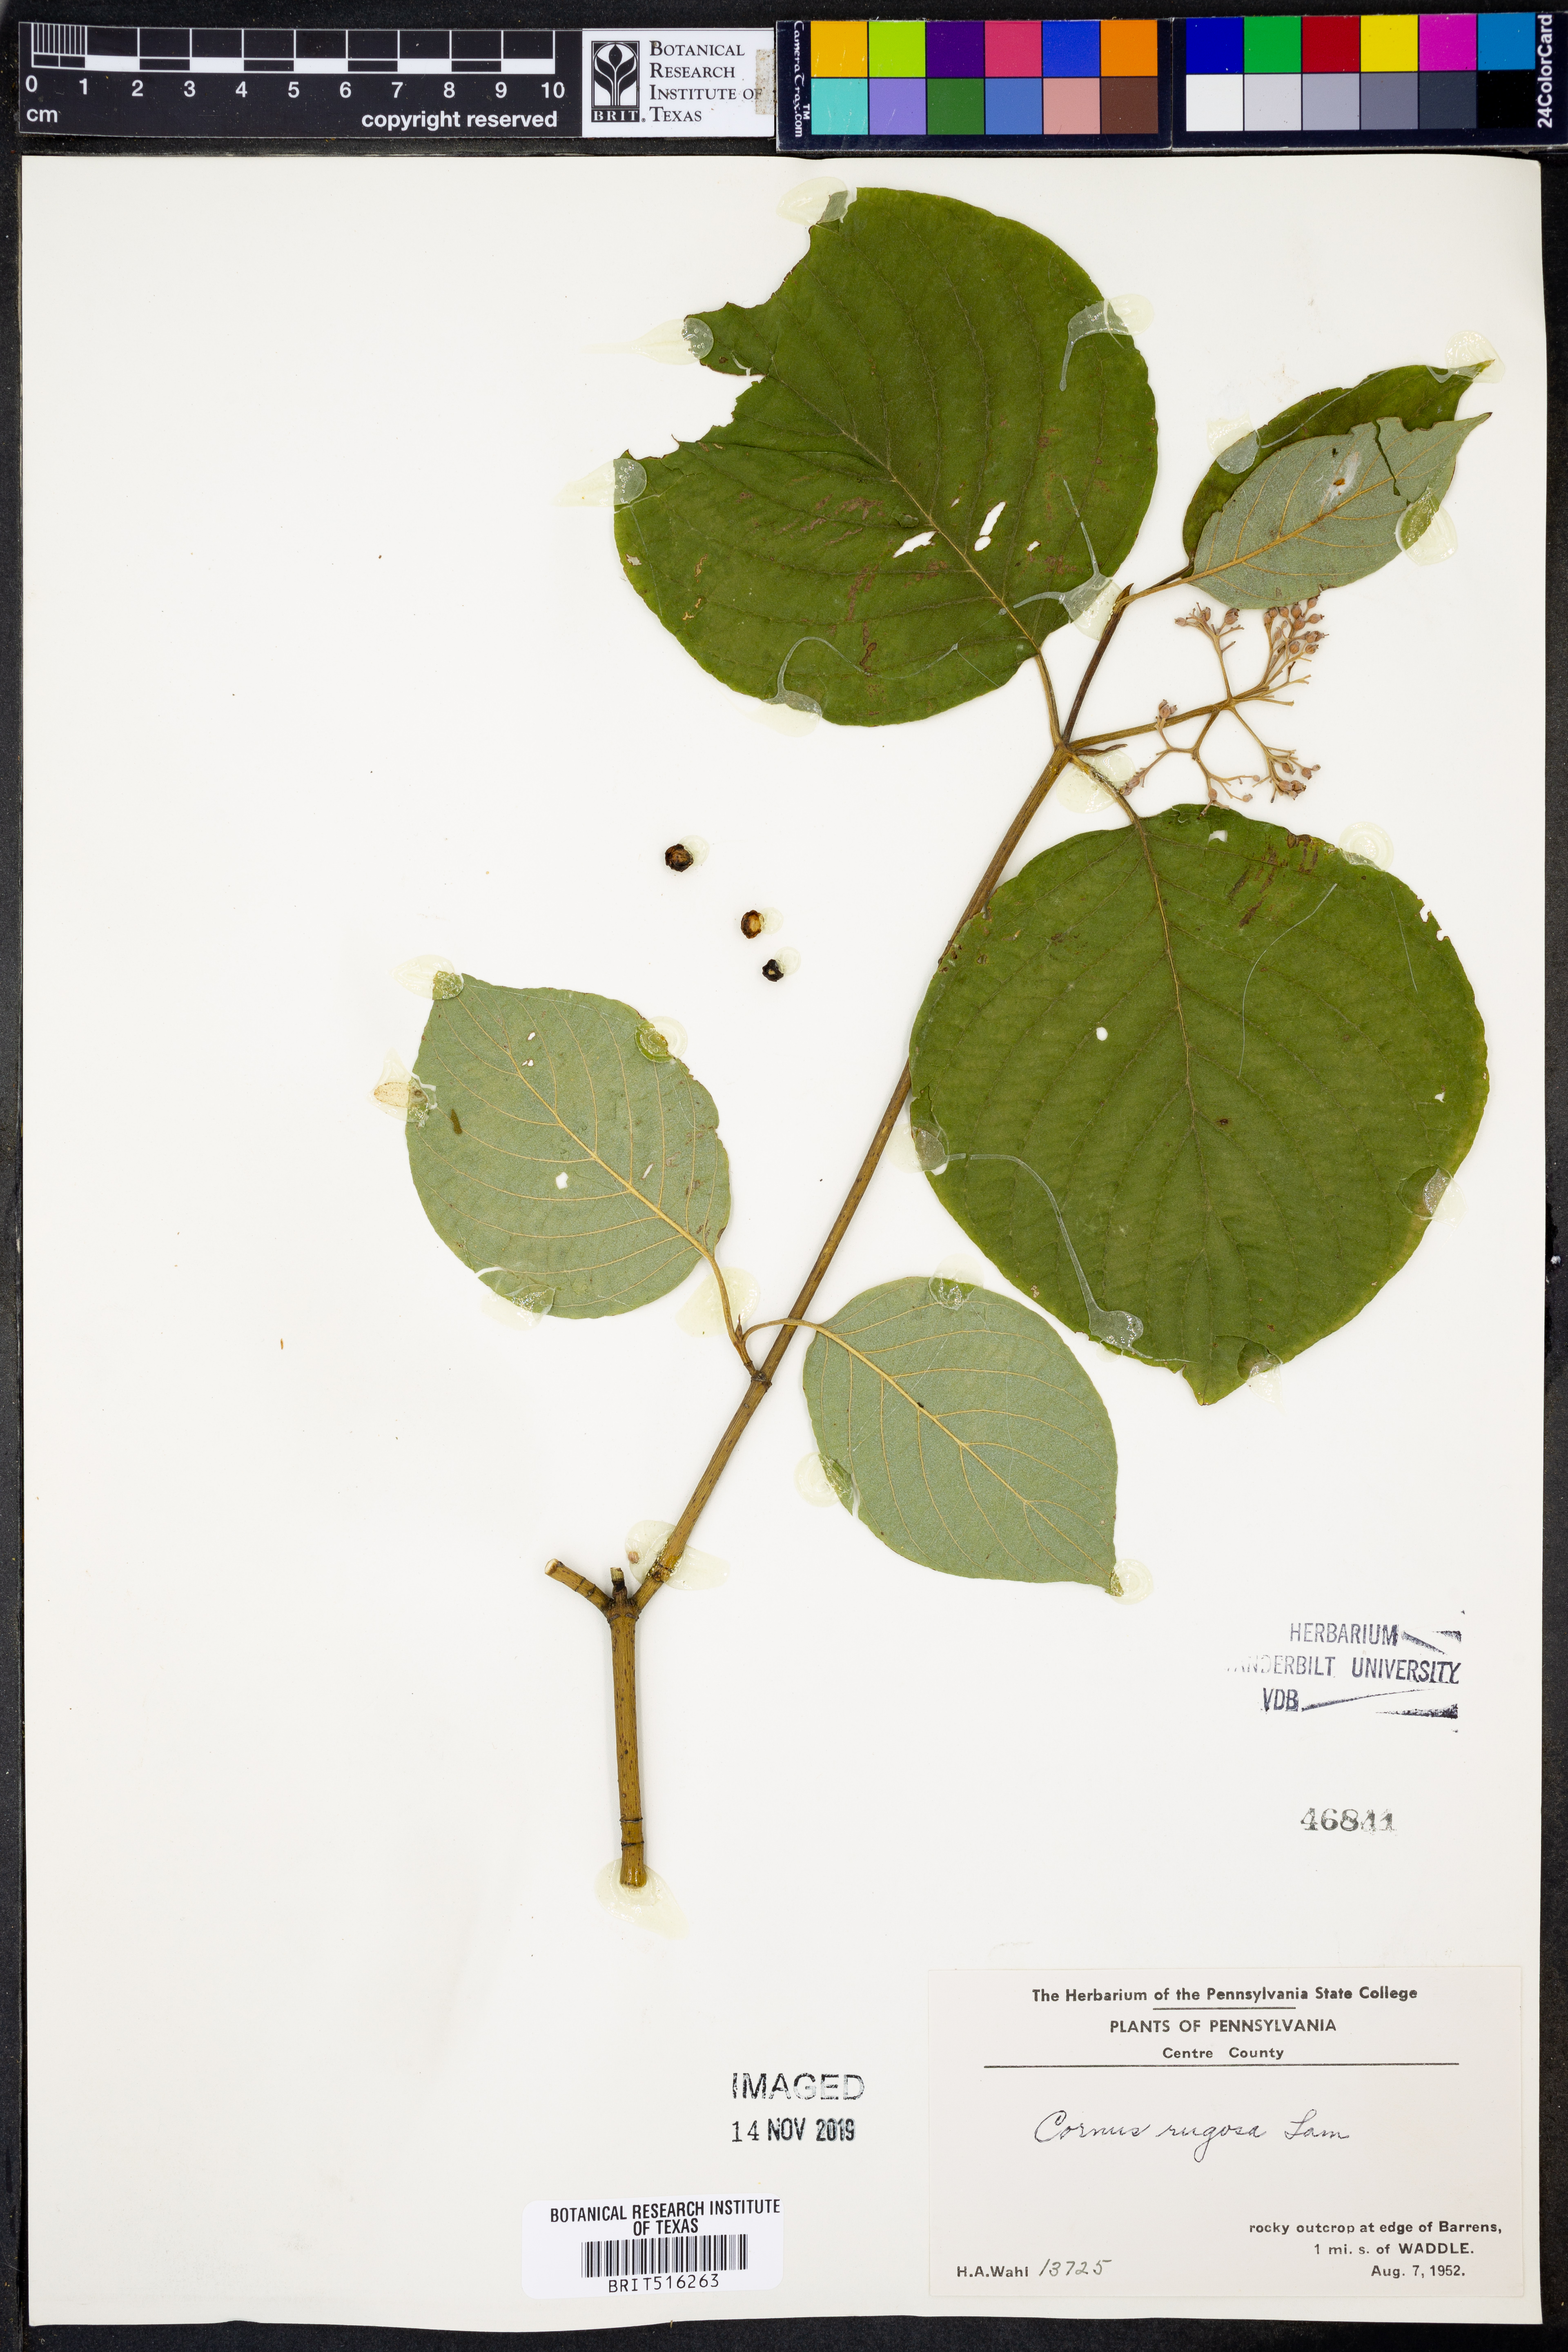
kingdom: Plantae
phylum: Tracheophyta
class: Magnoliopsida
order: Cornales
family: Cornaceae
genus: Cornus
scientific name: Cornus rugosa
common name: Round-leaf dogwood
